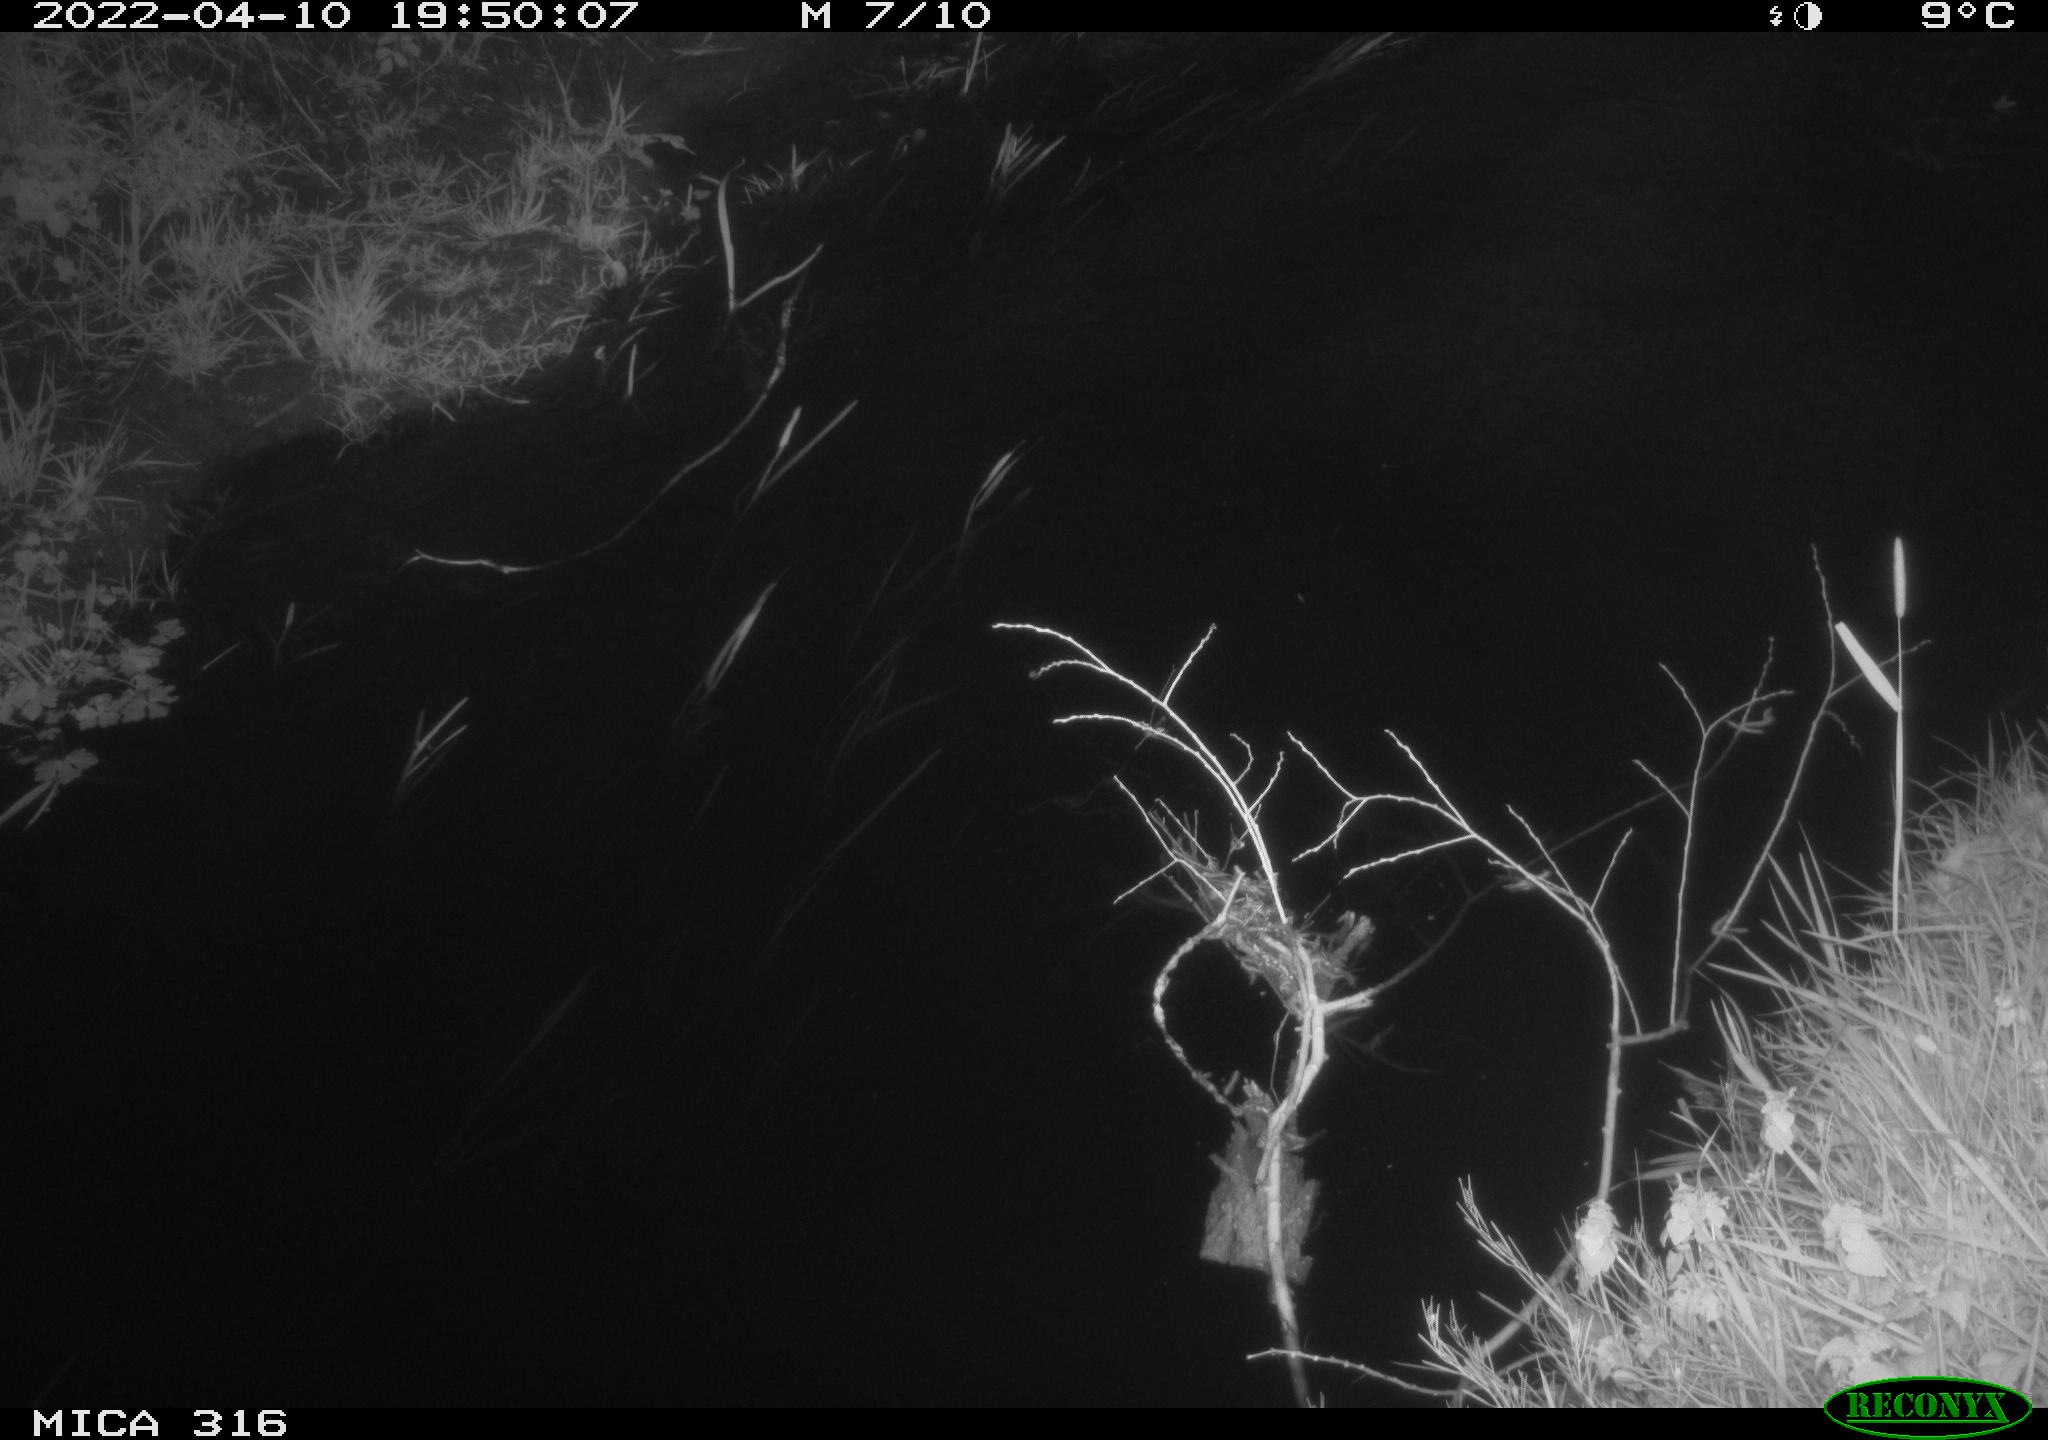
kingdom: Animalia
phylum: Chordata
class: Aves
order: Anseriformes
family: Anatidae
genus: Anas
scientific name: Anas platyrhynchos
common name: Mallard
